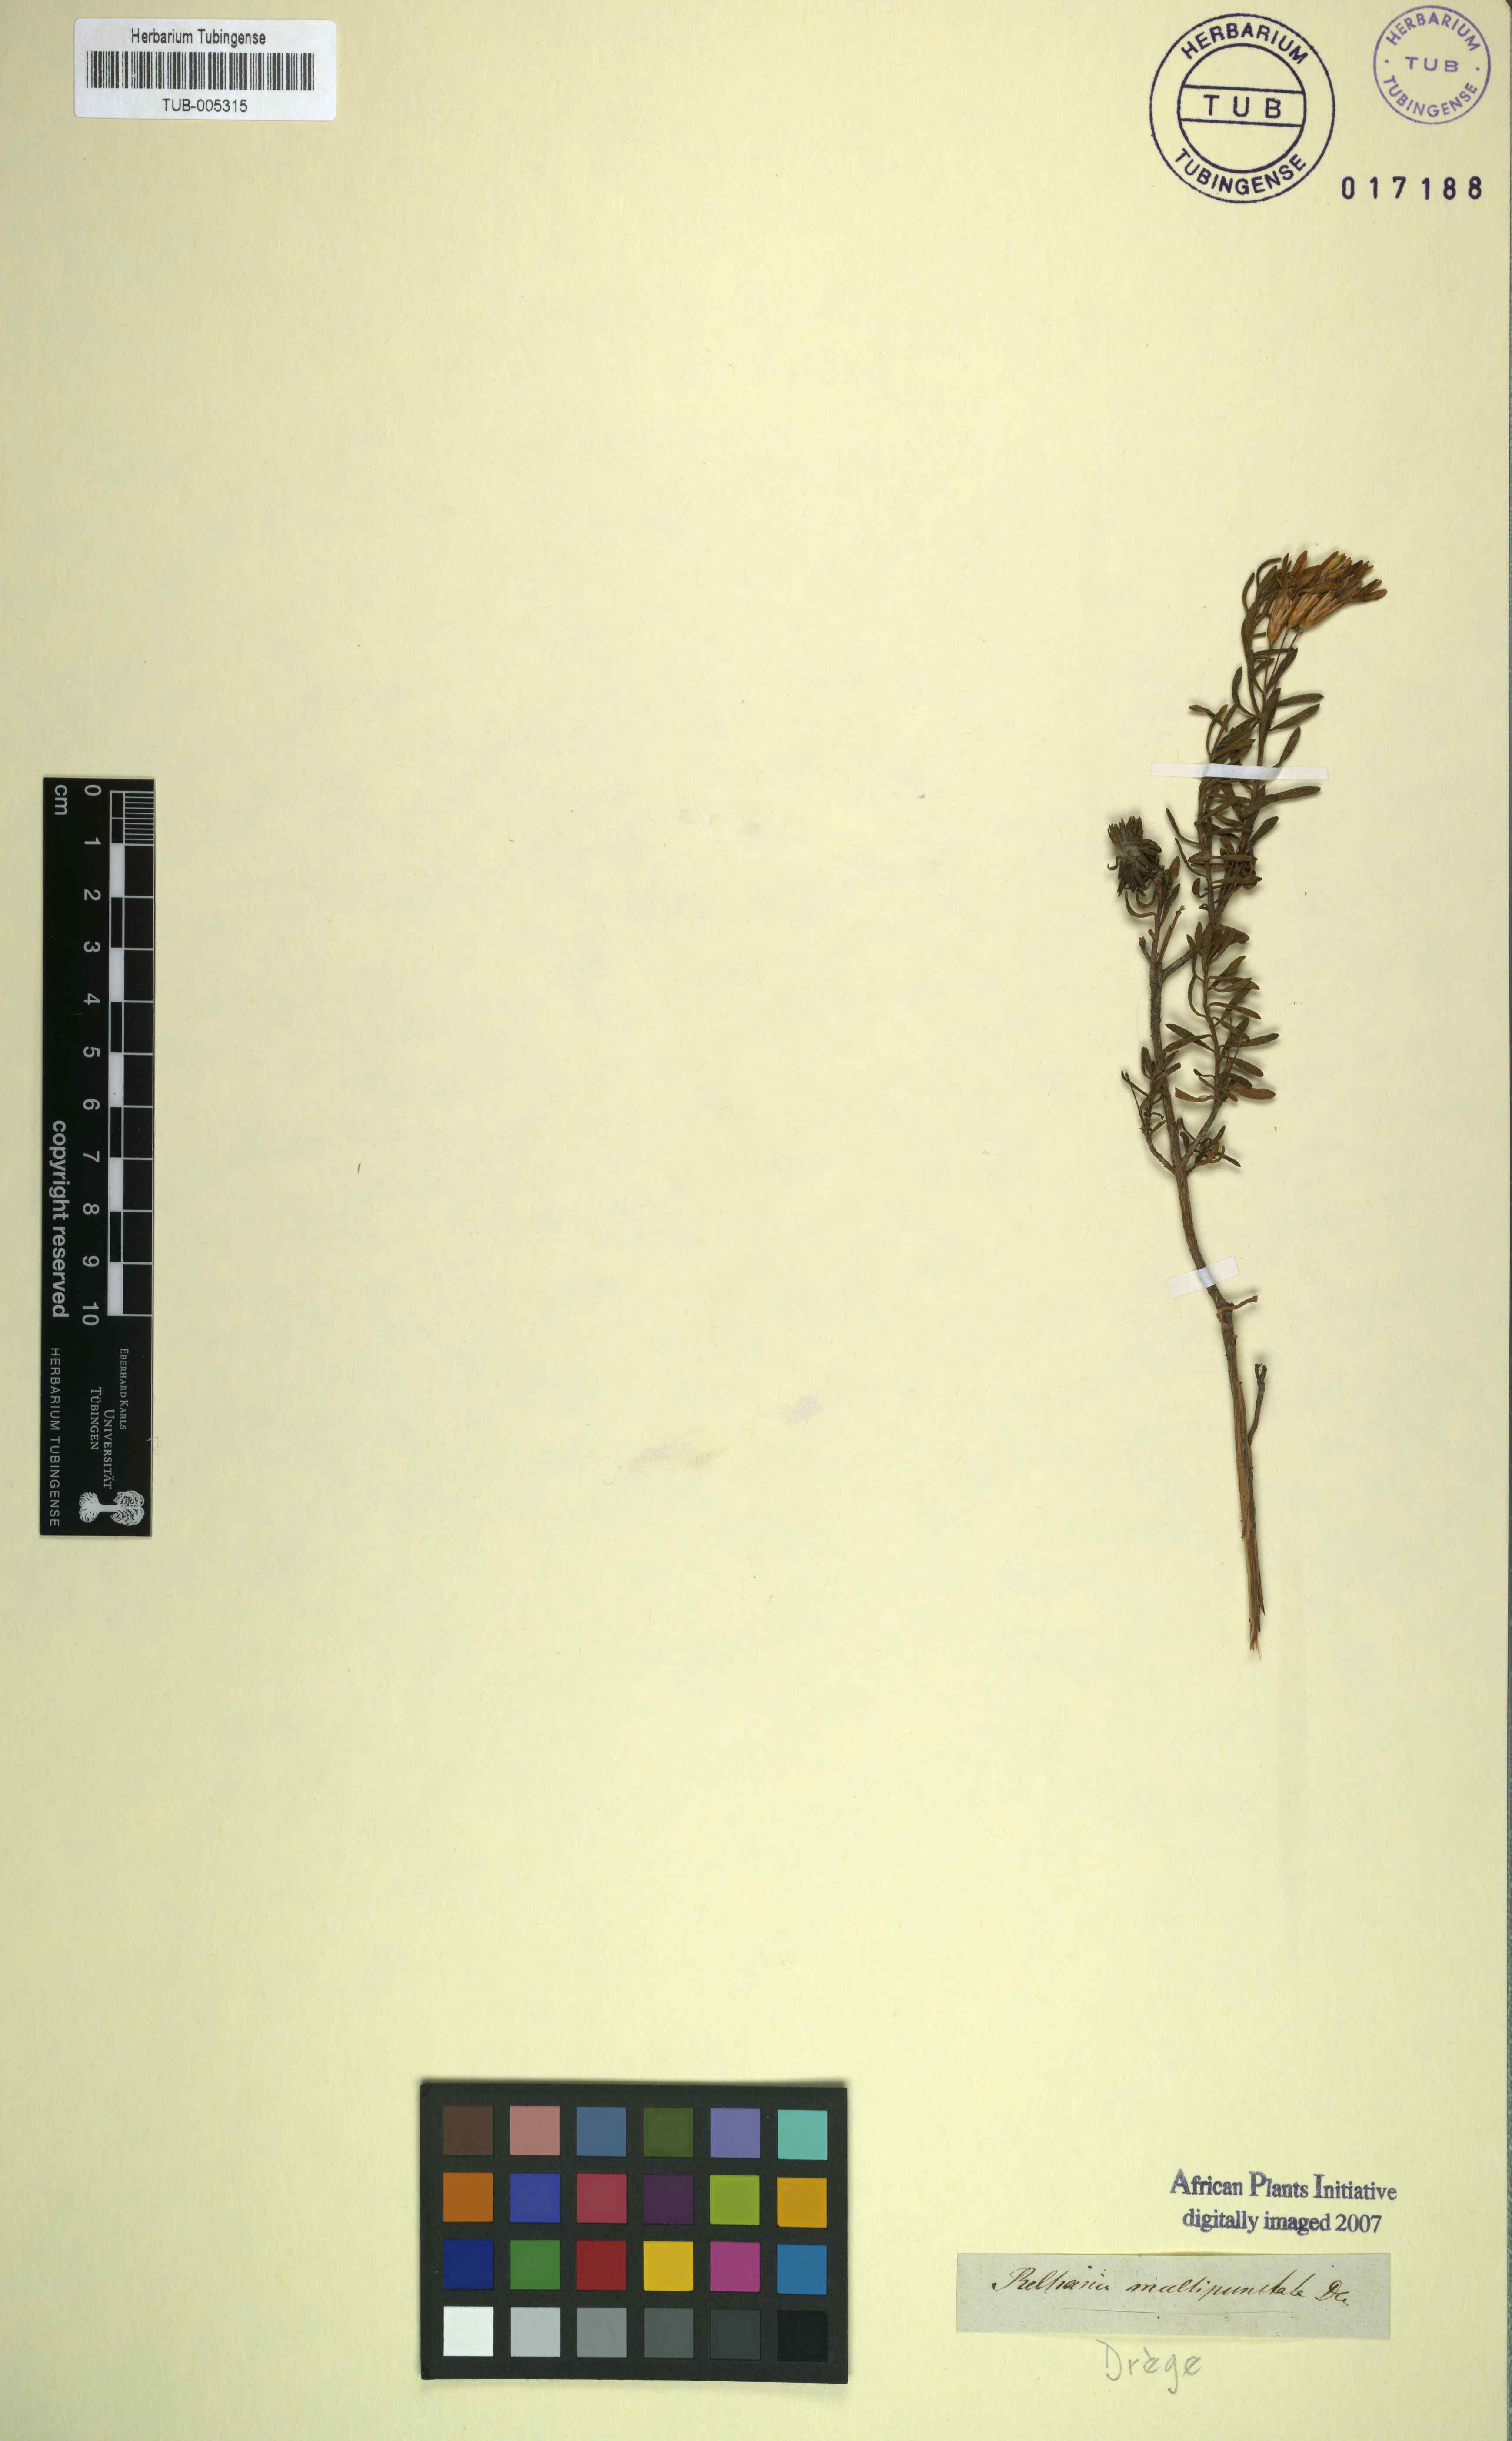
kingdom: Plantae
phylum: Tracheophyta
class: Magnoliopsida
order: Asterales
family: Asteraceae
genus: Oedera
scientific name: Oedera multipunctata
